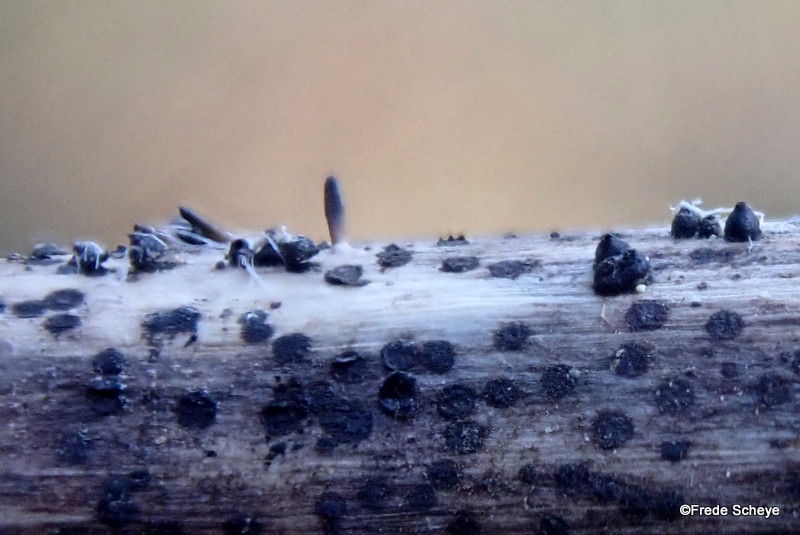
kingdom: Fungi
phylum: Ascomycota
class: Dothideomycetes
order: Acrospermales
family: Acrospermaceae
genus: Acrospermum
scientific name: Acrospermum compressum
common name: nælde-stængeltunge
